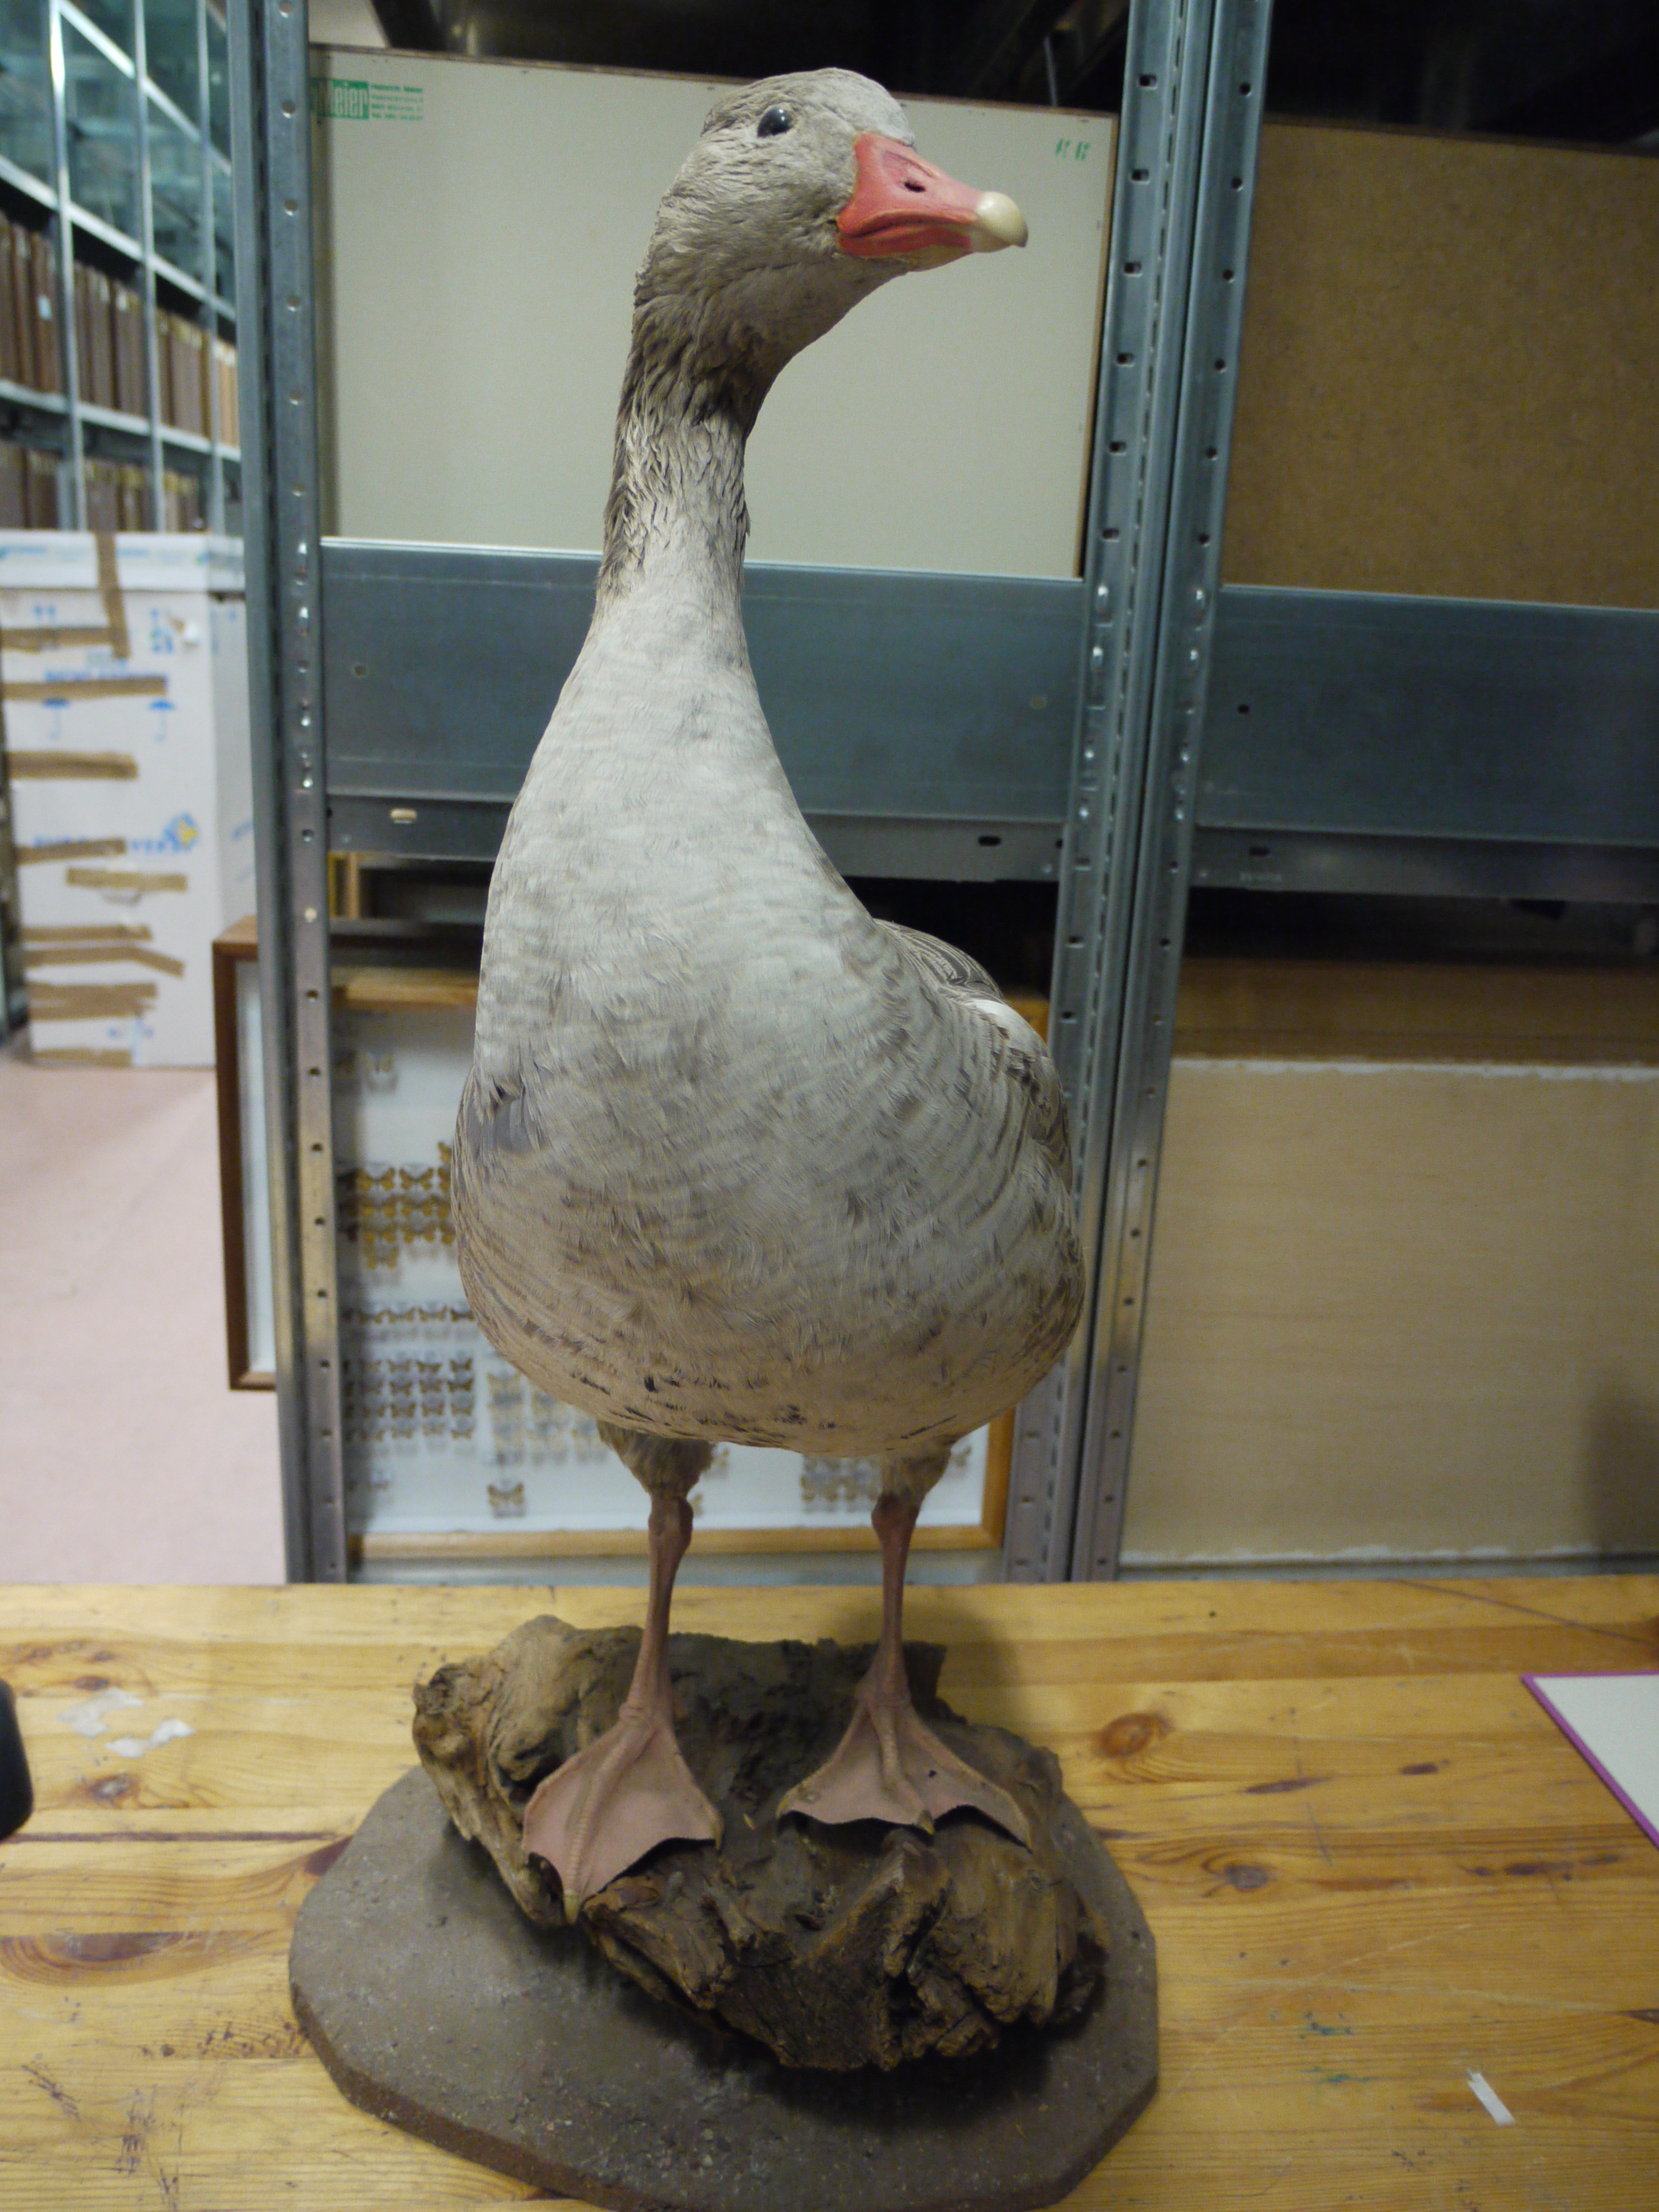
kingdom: Animalia
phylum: Chordata
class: Aves
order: Anseriformes
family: Anatidae
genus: Anser
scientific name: Anser anser
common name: Greylag goose
